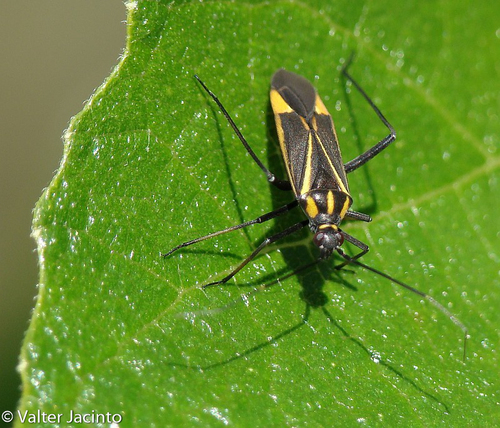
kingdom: Animalia
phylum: Arthropoda
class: Insecta
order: Hemiptera
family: Miridae
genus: Hadrodemus
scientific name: Hadrodemus m-flavum
